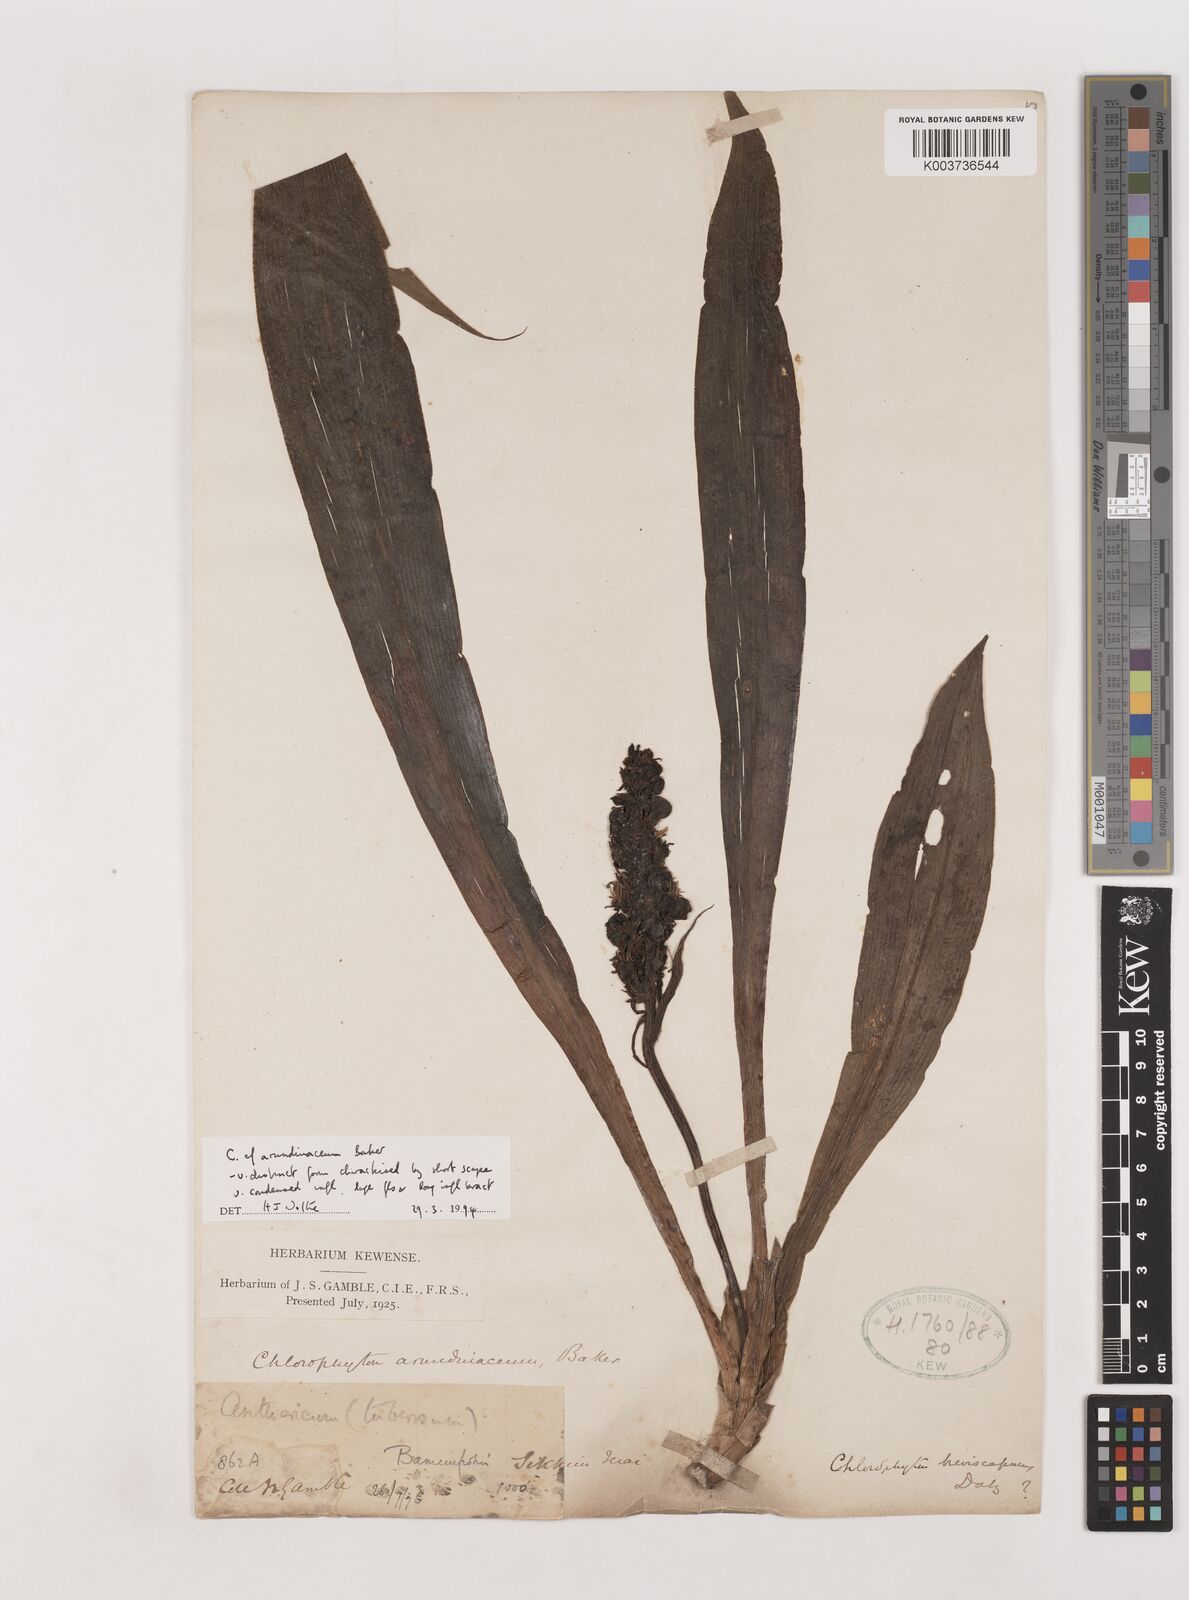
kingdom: Plantae
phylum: Tracheophyta
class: Liliopsida
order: Asparagales
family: Asparagaceae
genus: Chlorophytum
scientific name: Chlorophytum arundinaceum
